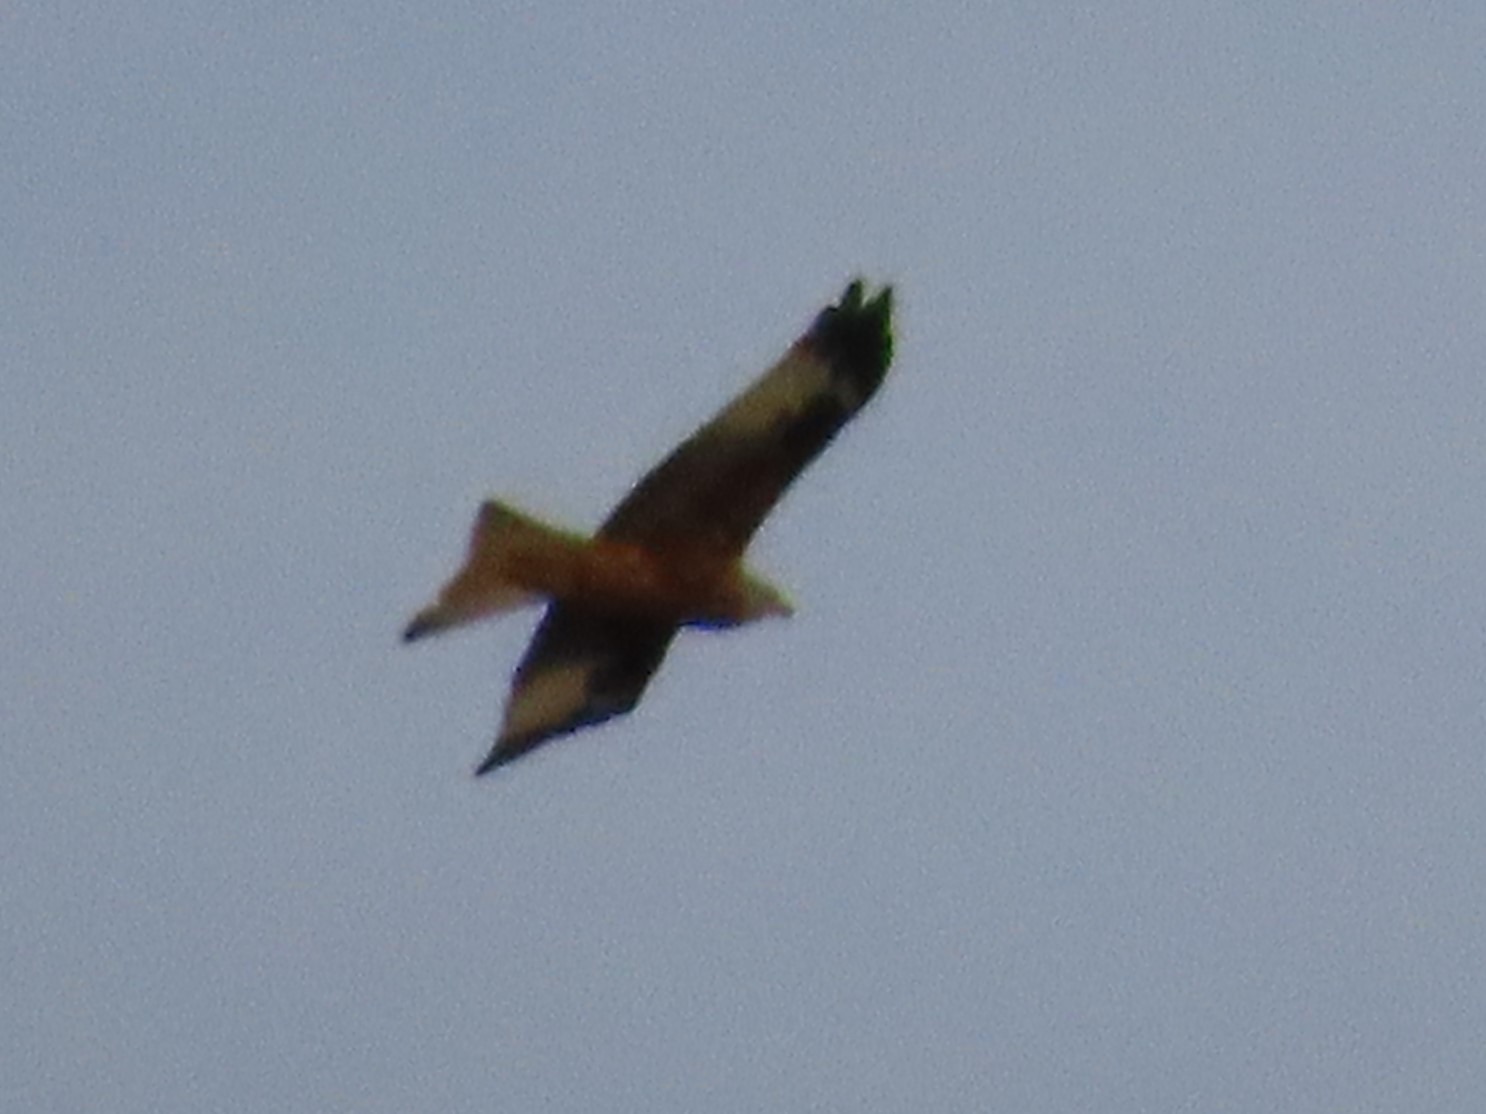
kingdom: Animalia
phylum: Chordata
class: Aves
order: Accipitriformes
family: Accipitridae
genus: Milvus
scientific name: Milvus milvus
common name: Rød glente
